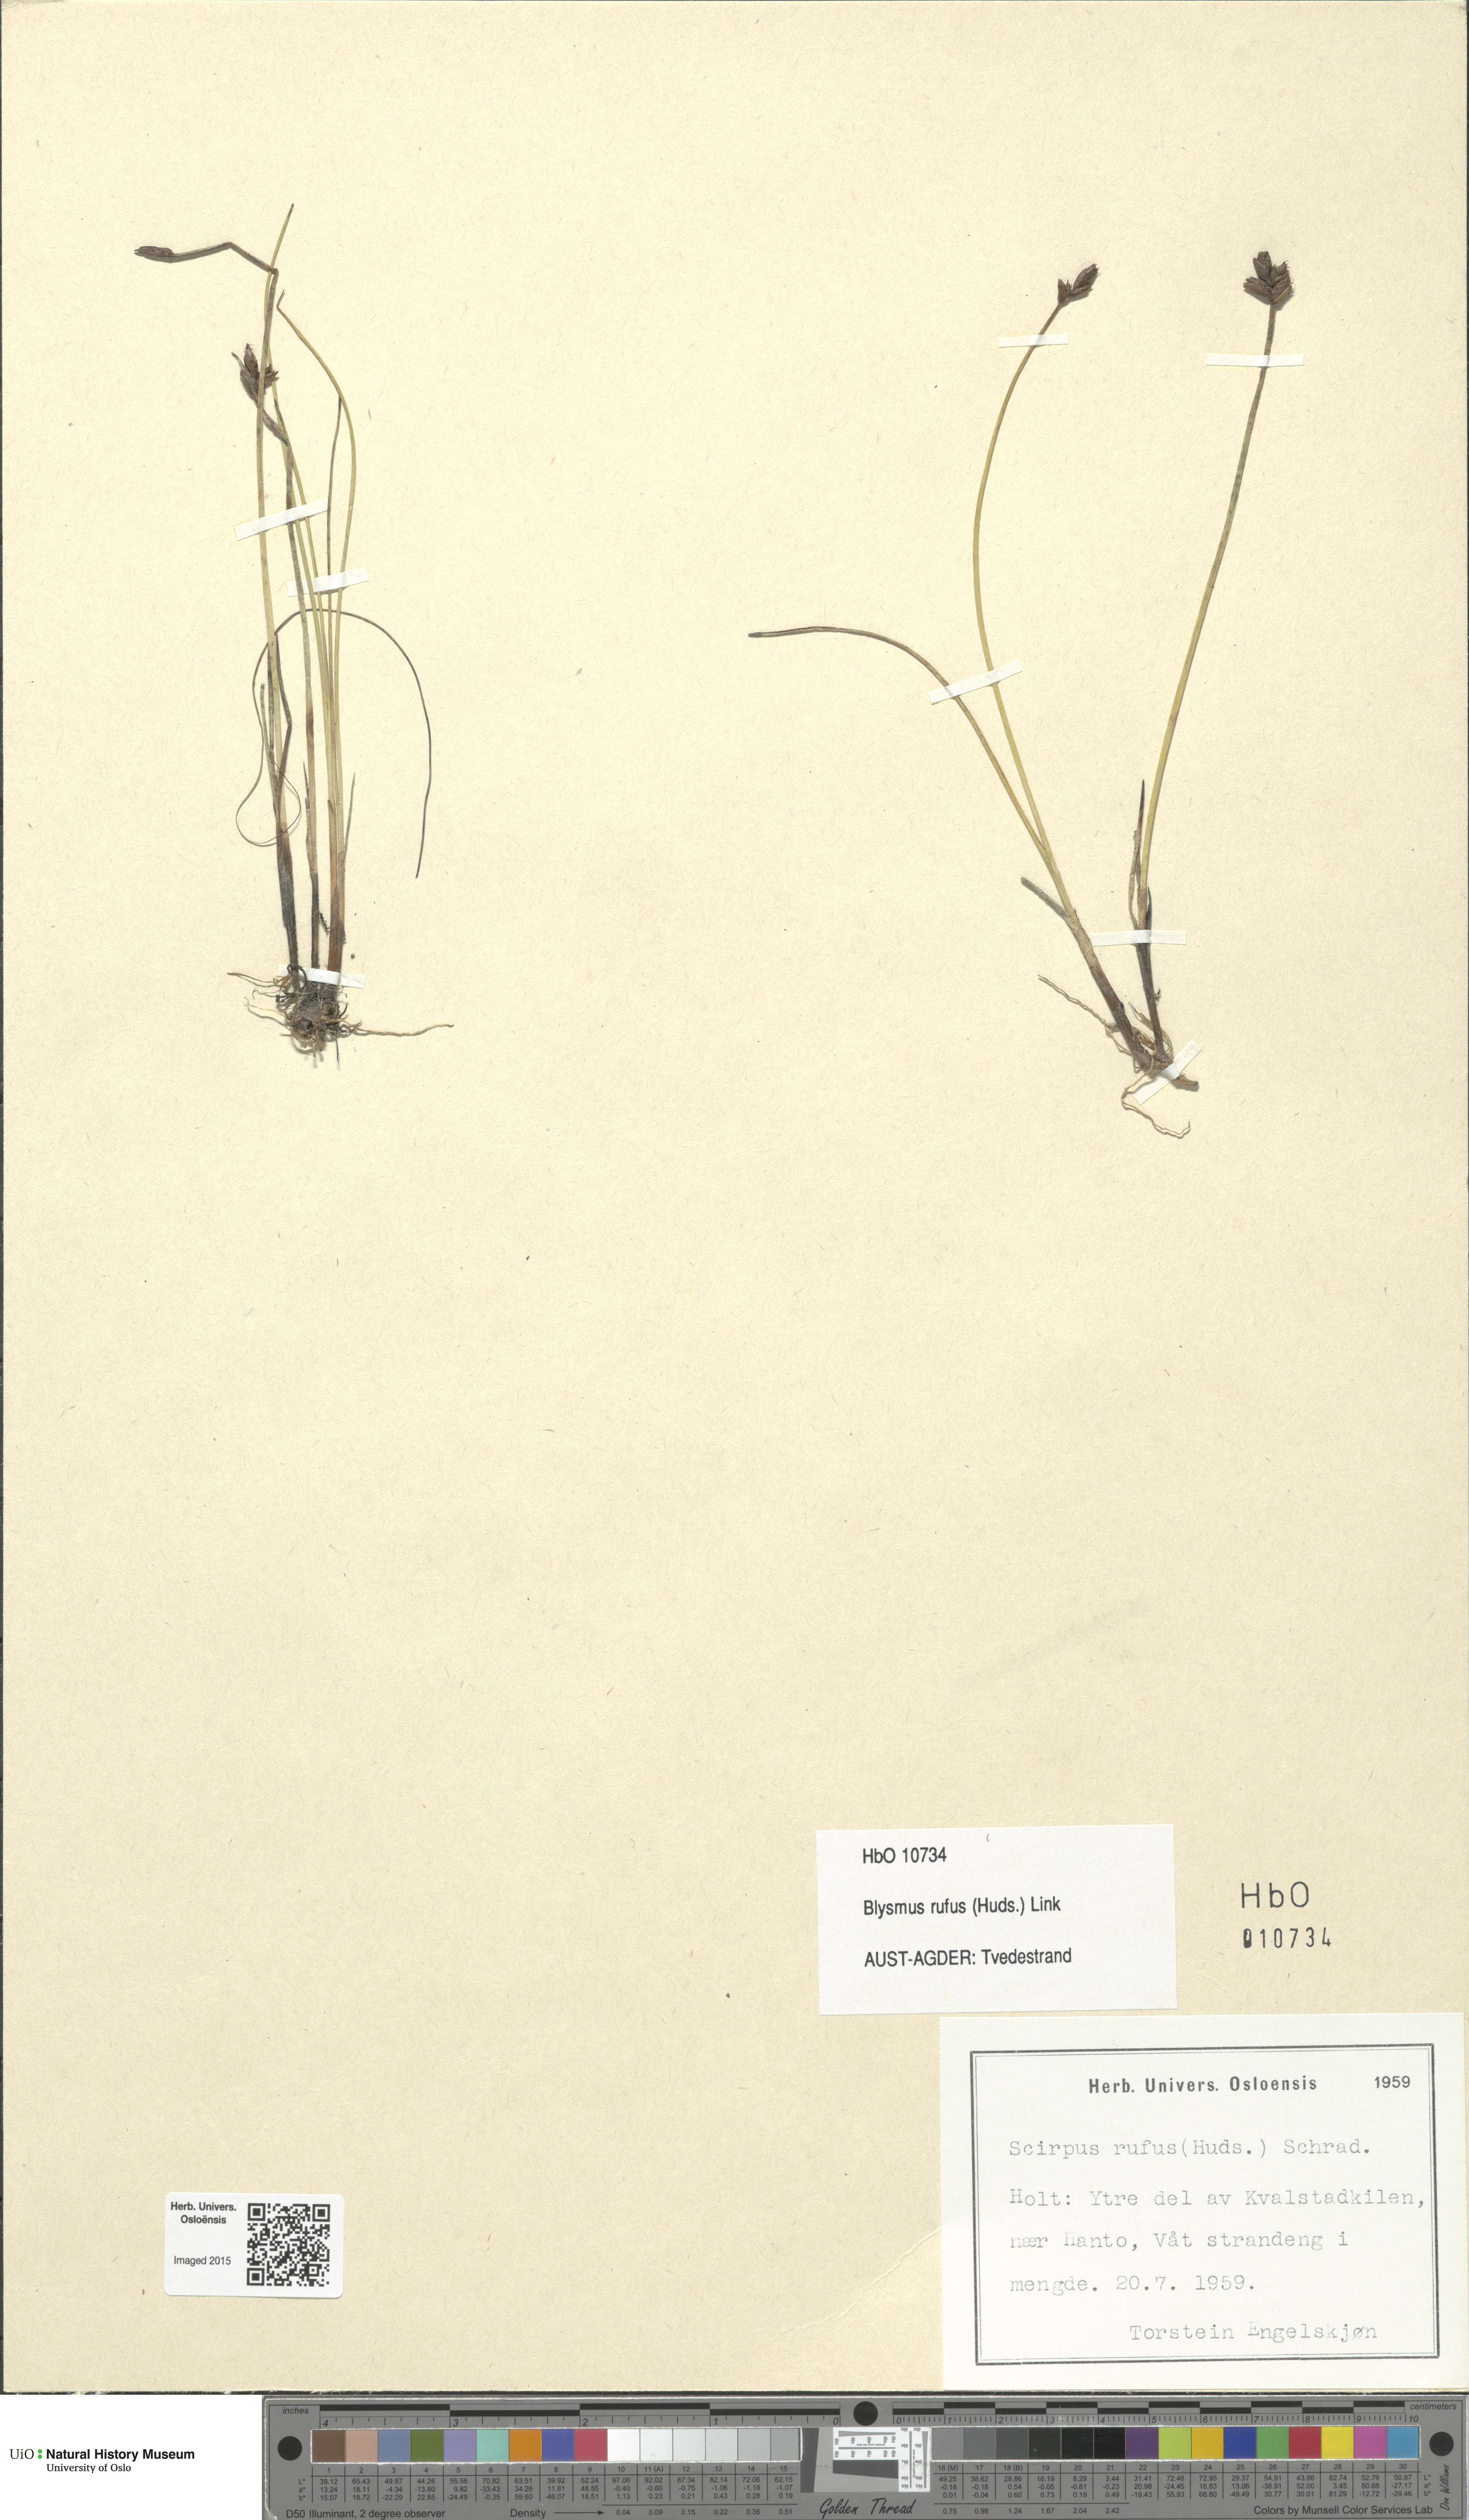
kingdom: Plantae
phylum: Tracheophyta
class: Liliopsida
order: Poales
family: Cyperaceae
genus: Blysmus
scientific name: Blysmus rufus
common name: Saltmarsh flat-sedge
